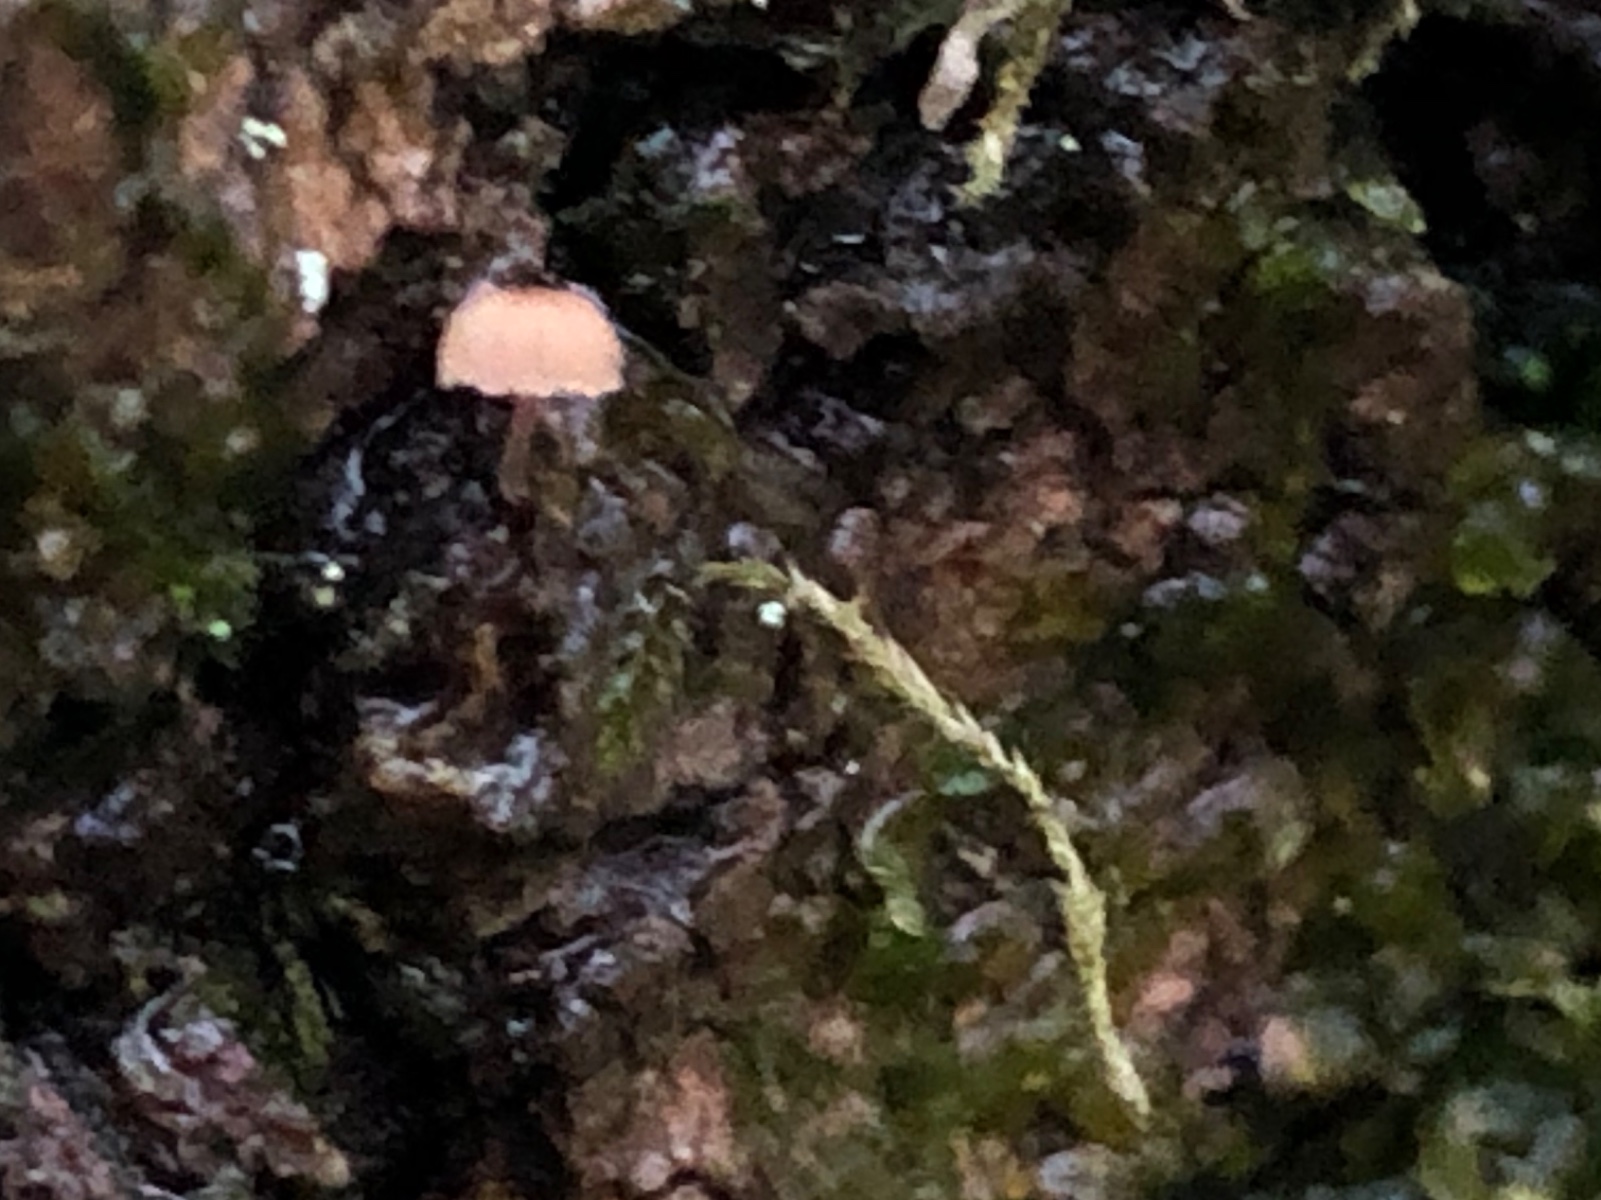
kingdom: Fungi
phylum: Basidiomycota
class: Agaricomycetes
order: Agaricales
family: Mycenaceae
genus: Mycena
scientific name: Mycena meliigena
